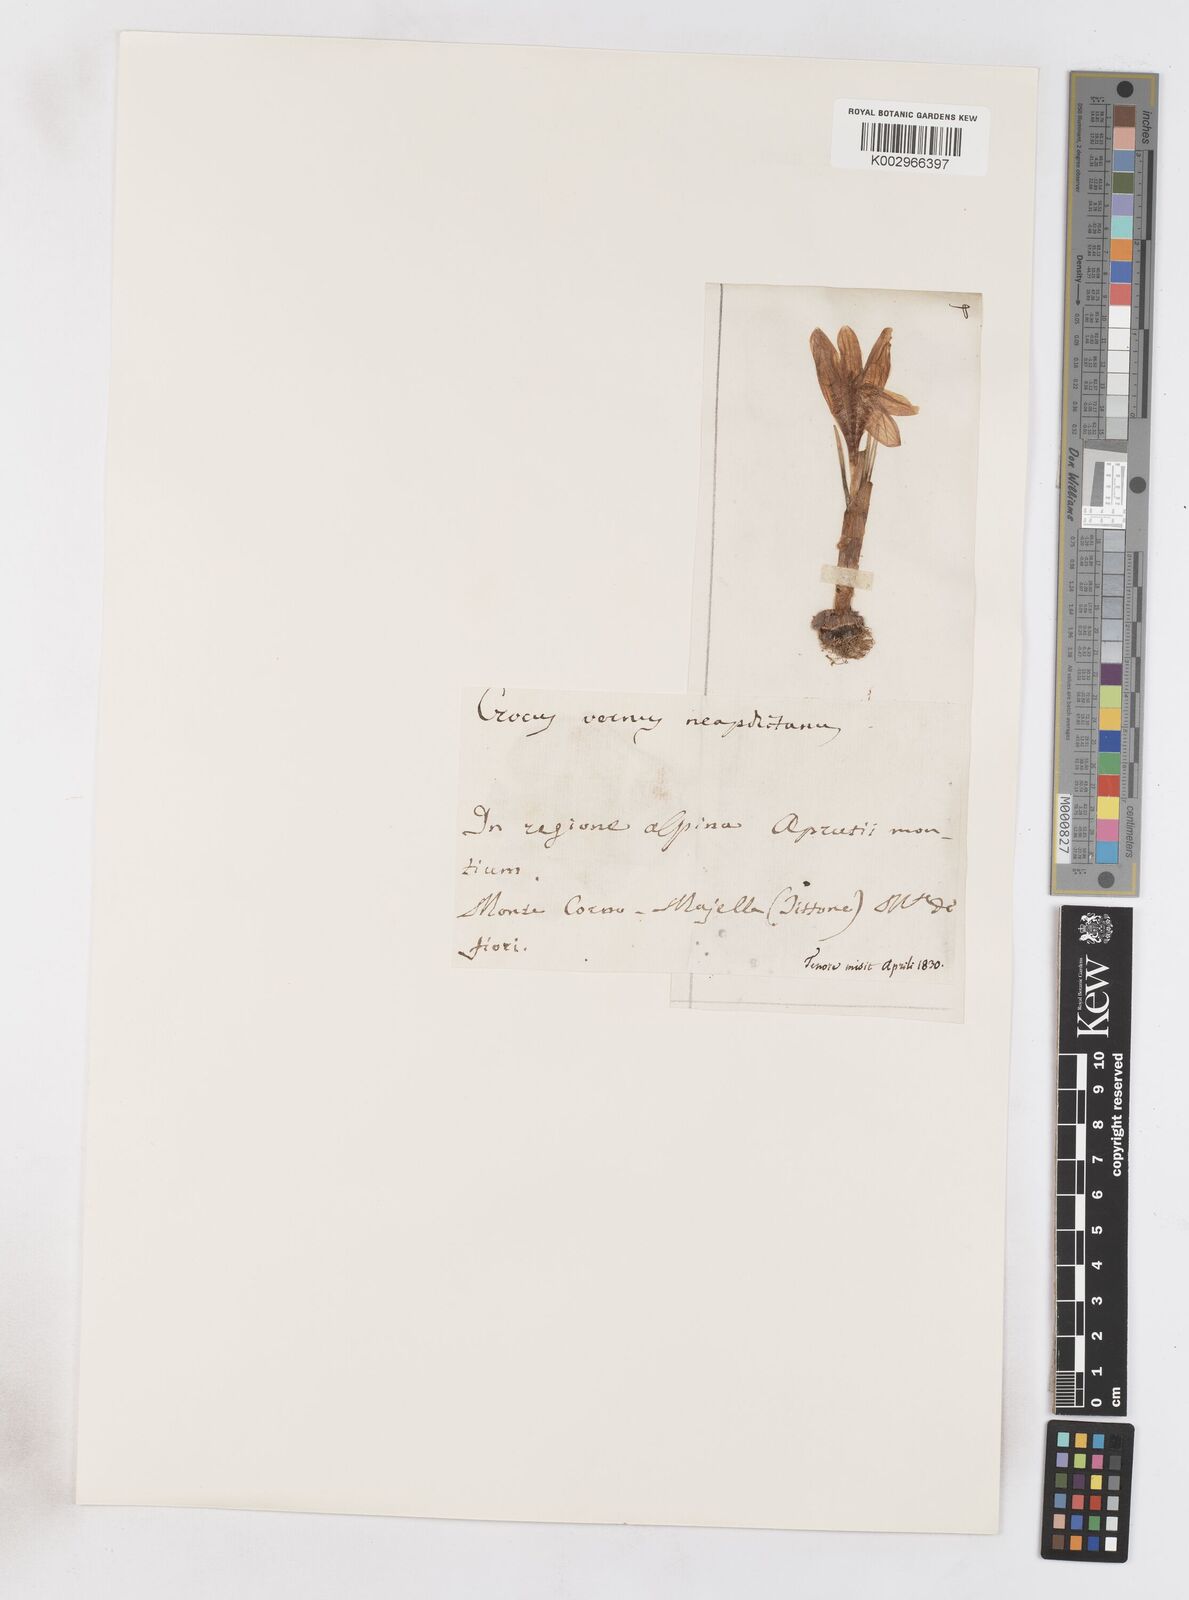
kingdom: Plantae
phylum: Tracheophyta
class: Liliopsida
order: Asparagales
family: Iridaceae
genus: Crocus
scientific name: Crocus vernus
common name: Spring crocus
